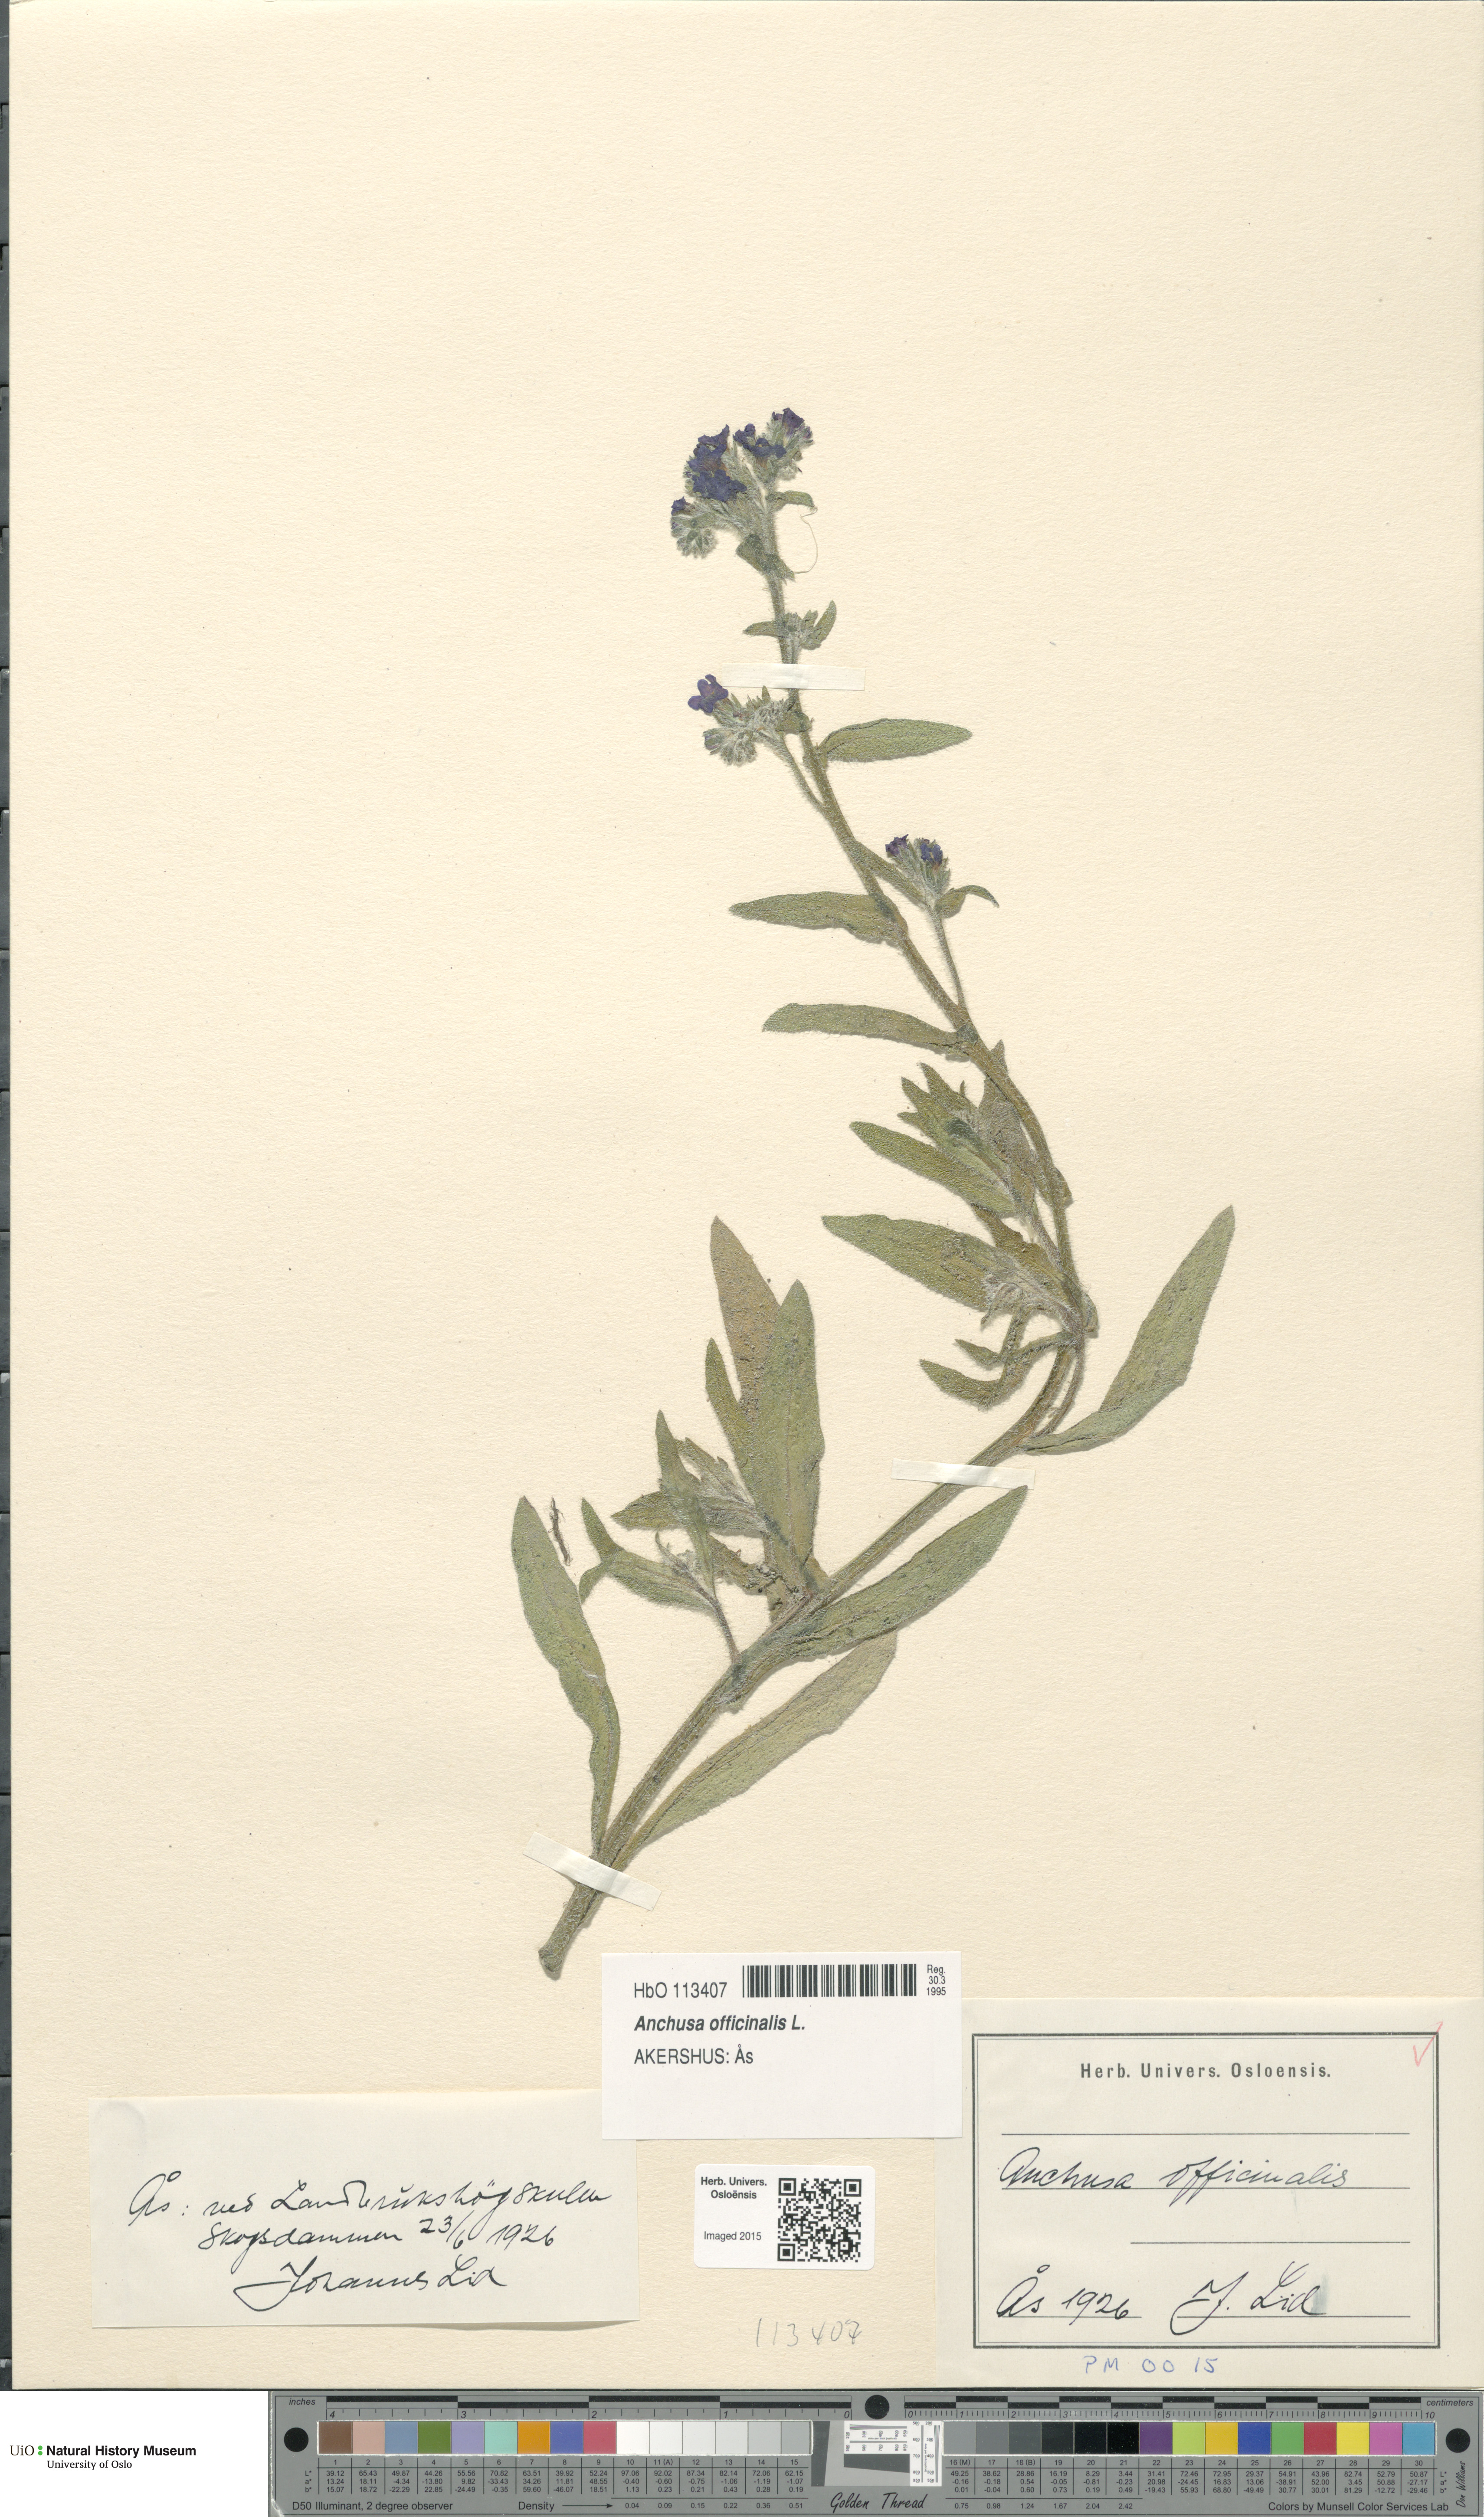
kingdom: Plantae
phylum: Tracheophyta
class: Magnoliopsida
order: Boraginales
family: Boraginaceae
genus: Anchusa
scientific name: Anchusa officinalis
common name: Alkanet
